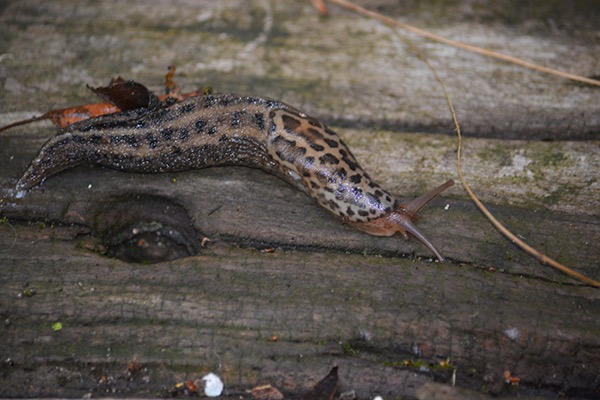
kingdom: Animalia
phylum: Mollusca
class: Gastropoda
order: Stylommatophora
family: Limacidae
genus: Limax
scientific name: Limax maximus
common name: Pantersnegl
